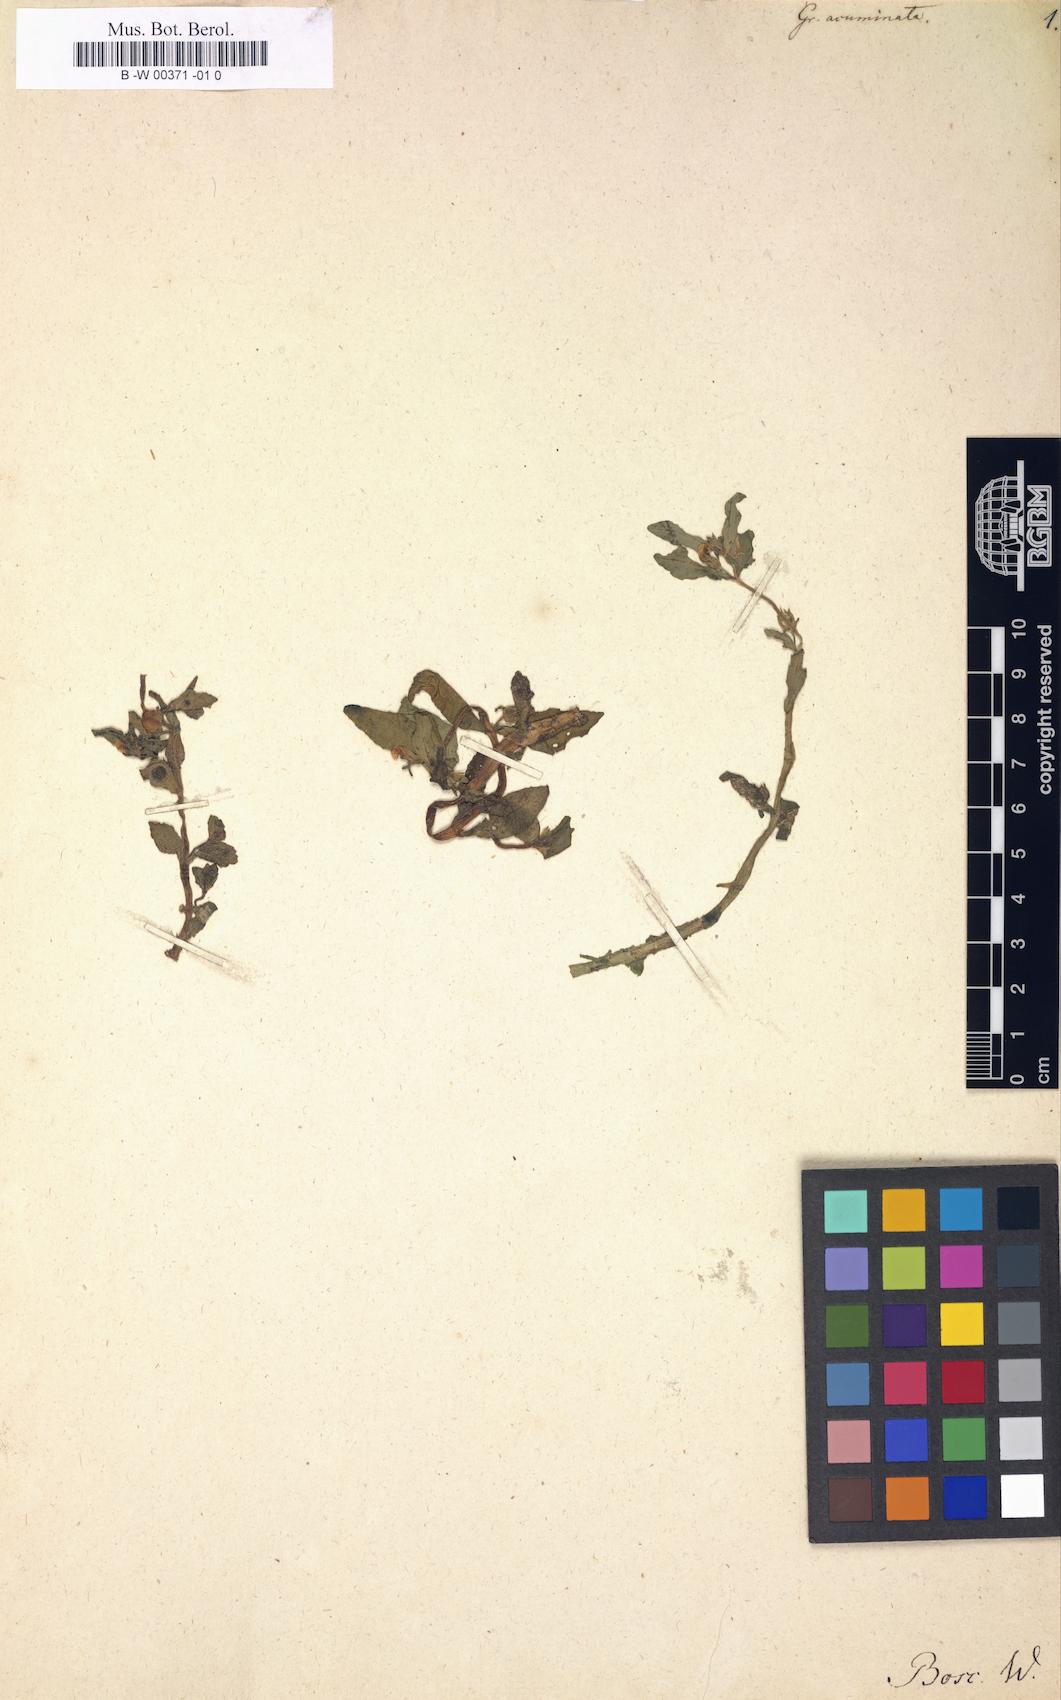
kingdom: Plantae
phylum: Tracheophyta
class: Magnoliopsida
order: Lamiales
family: Plantaginaceae
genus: Mecardonia
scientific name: Mecardonia acuminata
